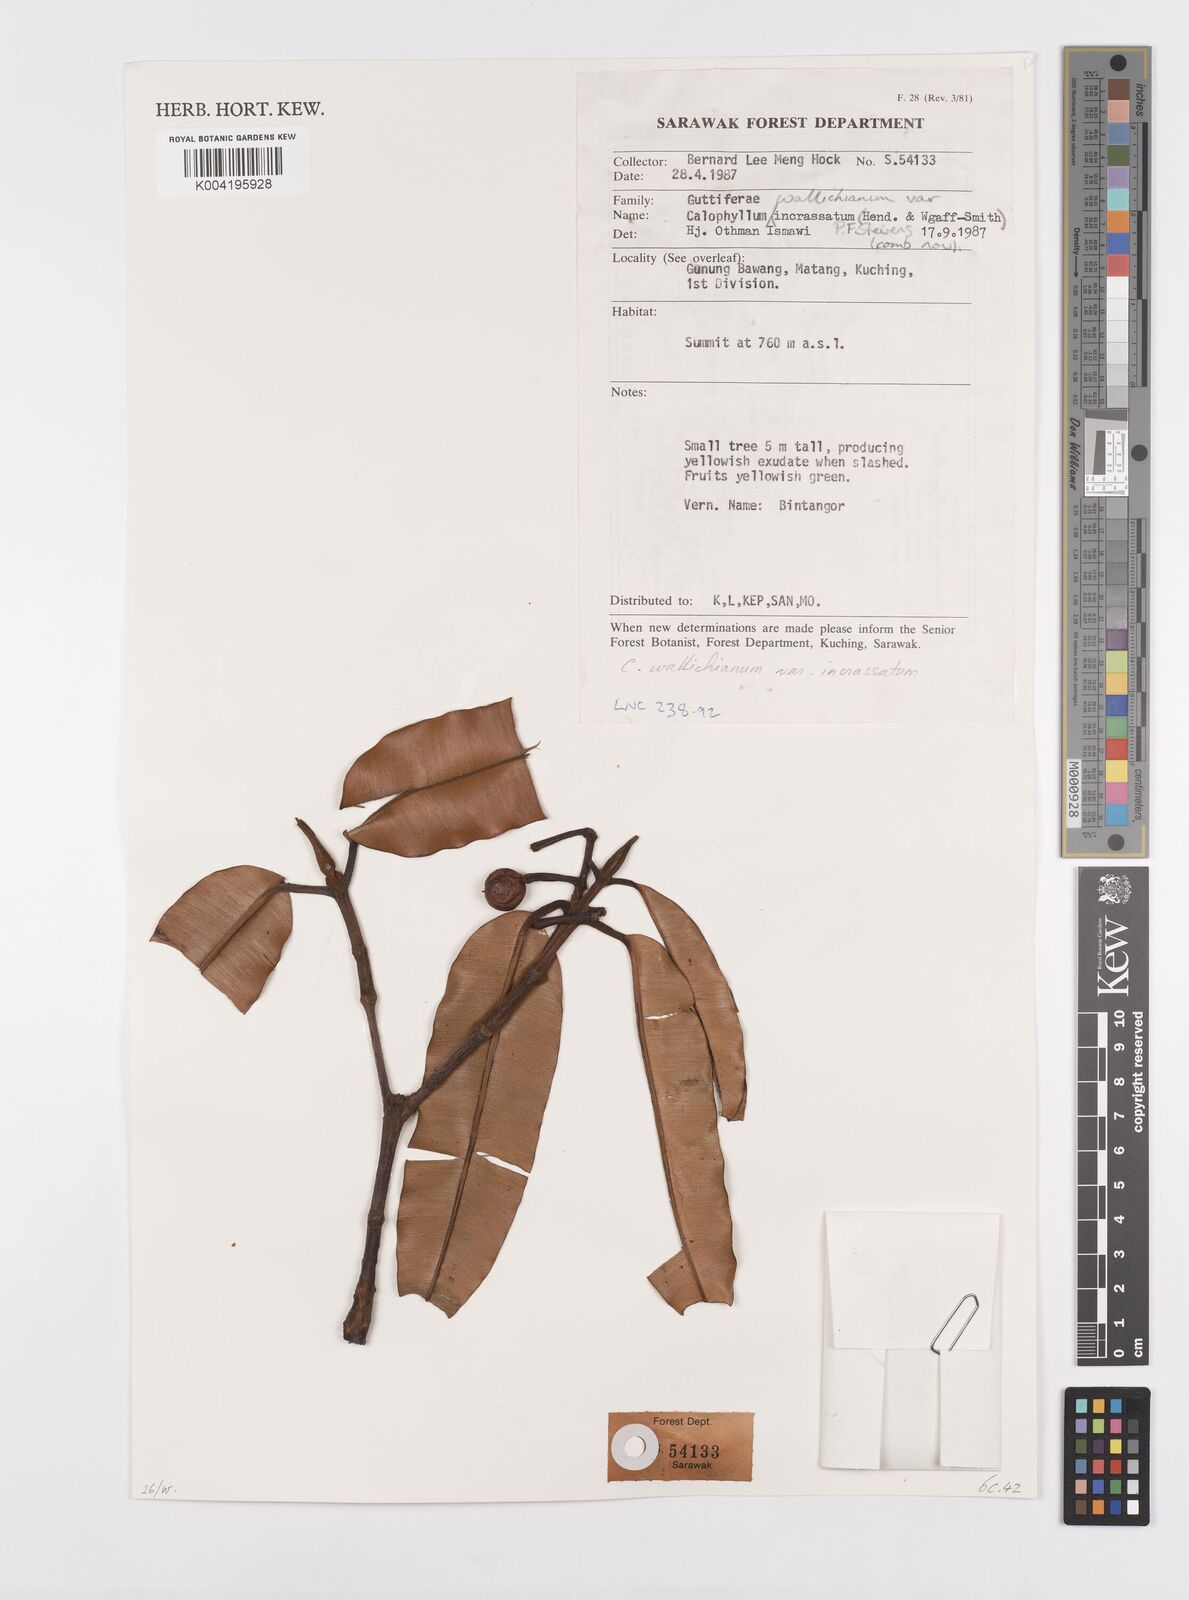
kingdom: Plantae
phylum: Tracheophyta
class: Magnoliopsida
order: Malpighiales
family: Calophyllaceae
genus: Calophyllum
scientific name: Calophyllum wallichiana
